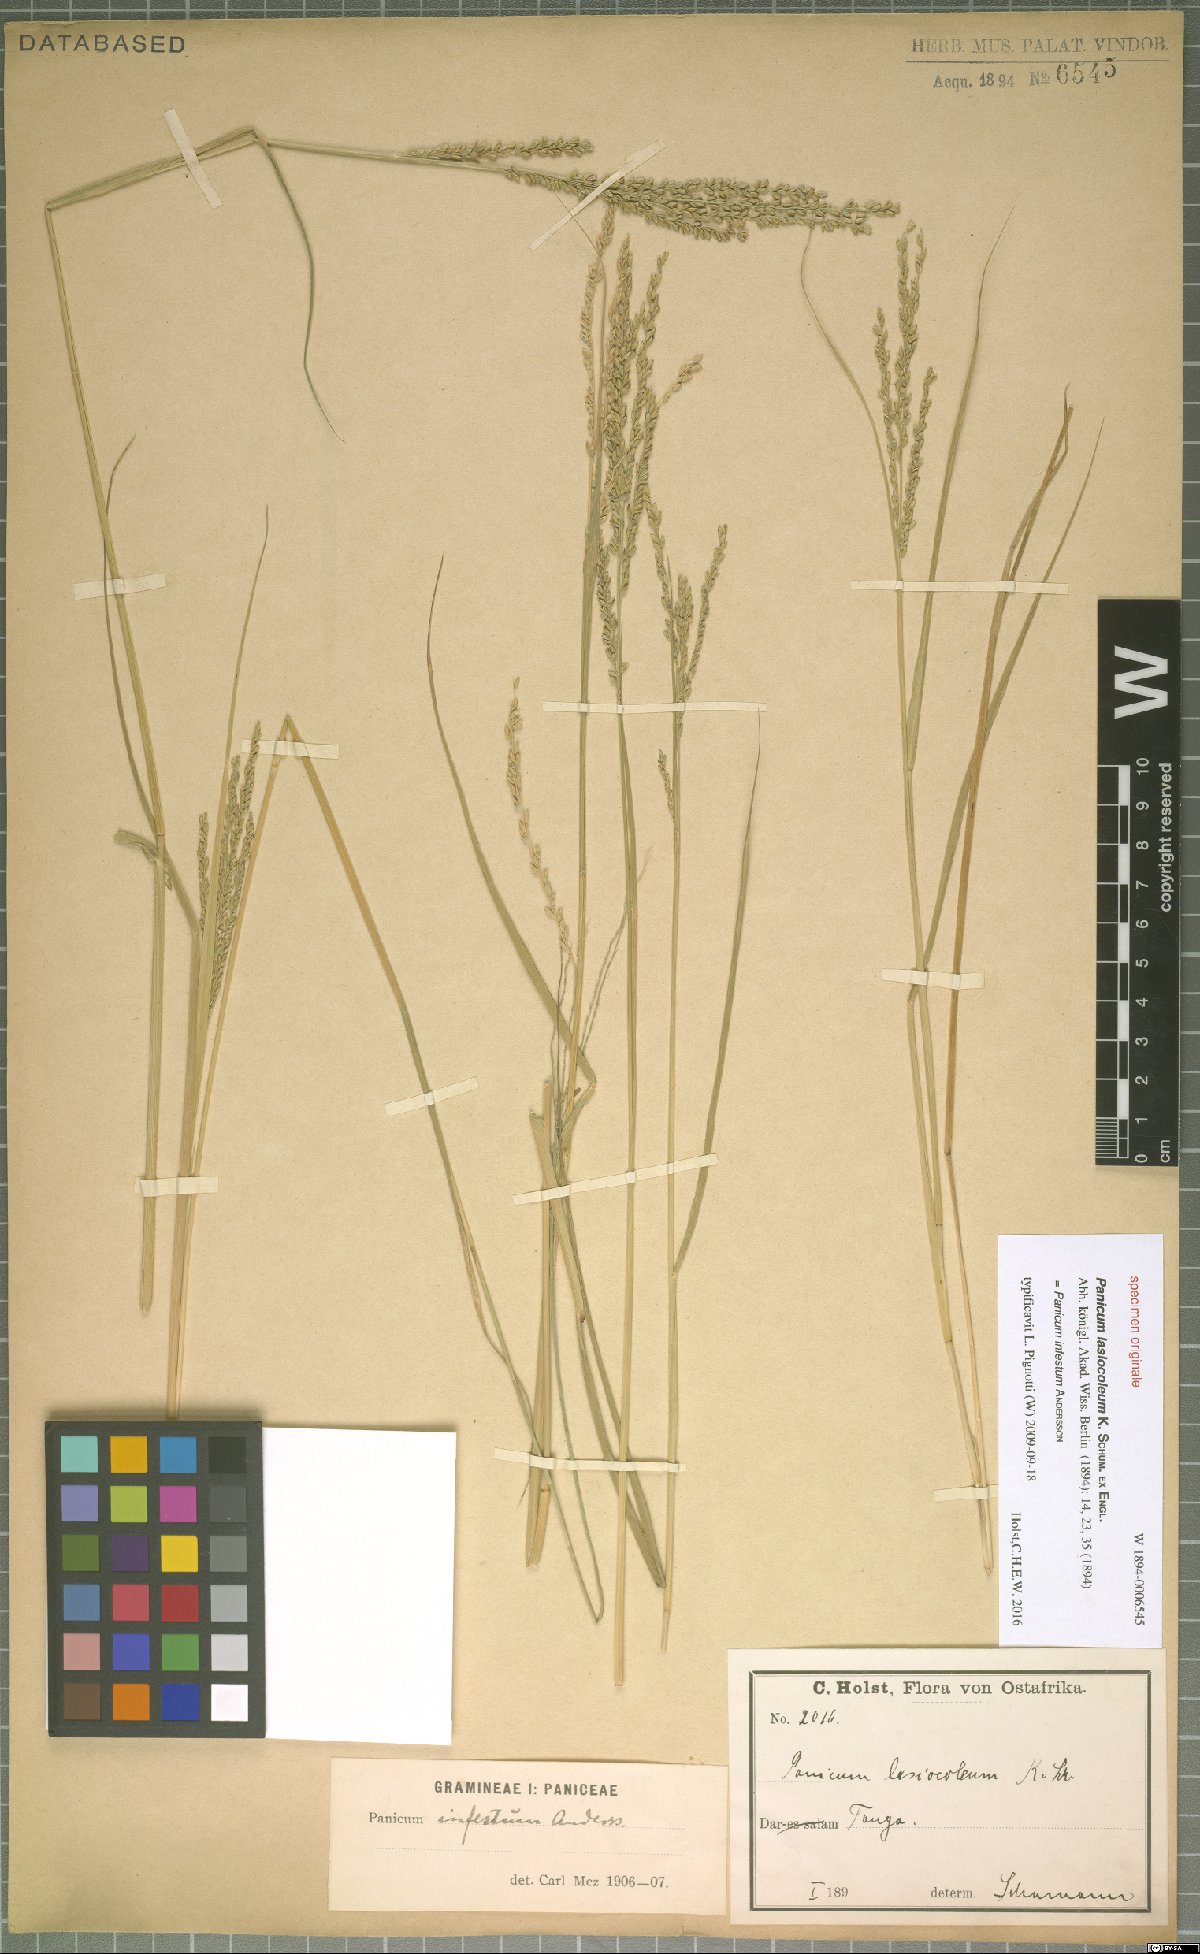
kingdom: Plantae
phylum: Tracheophyta
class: Liliopsida
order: Poales
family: Poaceae
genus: Megathyrsus
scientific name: Megathyrsus infestus
